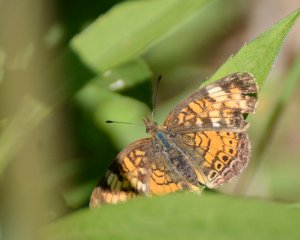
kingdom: Animalia
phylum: Arthropoda
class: Insecta
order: Lepidoptera
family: Nymphalidae
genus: Phyciodes
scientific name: Phyciodes tharos
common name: Northern Crescent
